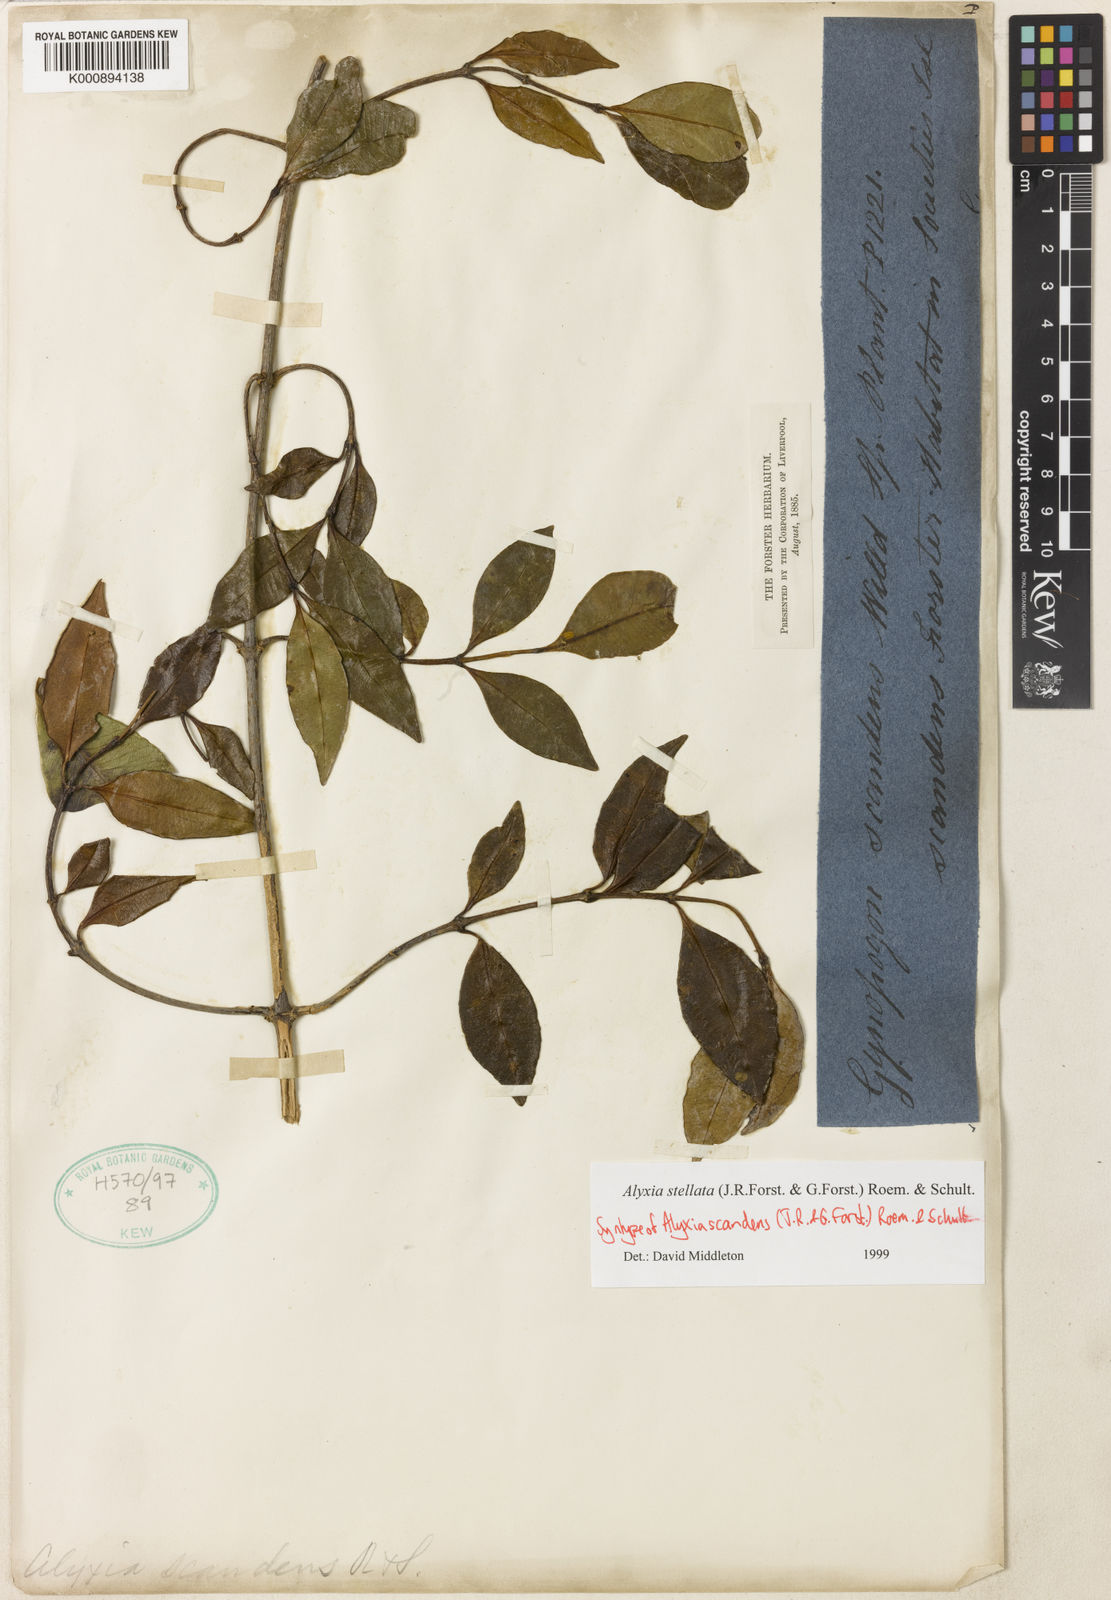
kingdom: Plantae
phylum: Tracheophyta
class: Magnoliopsida
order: Gentianales
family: Apocynaceae
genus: Alyxia
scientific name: Alyxia stellata
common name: Maile
